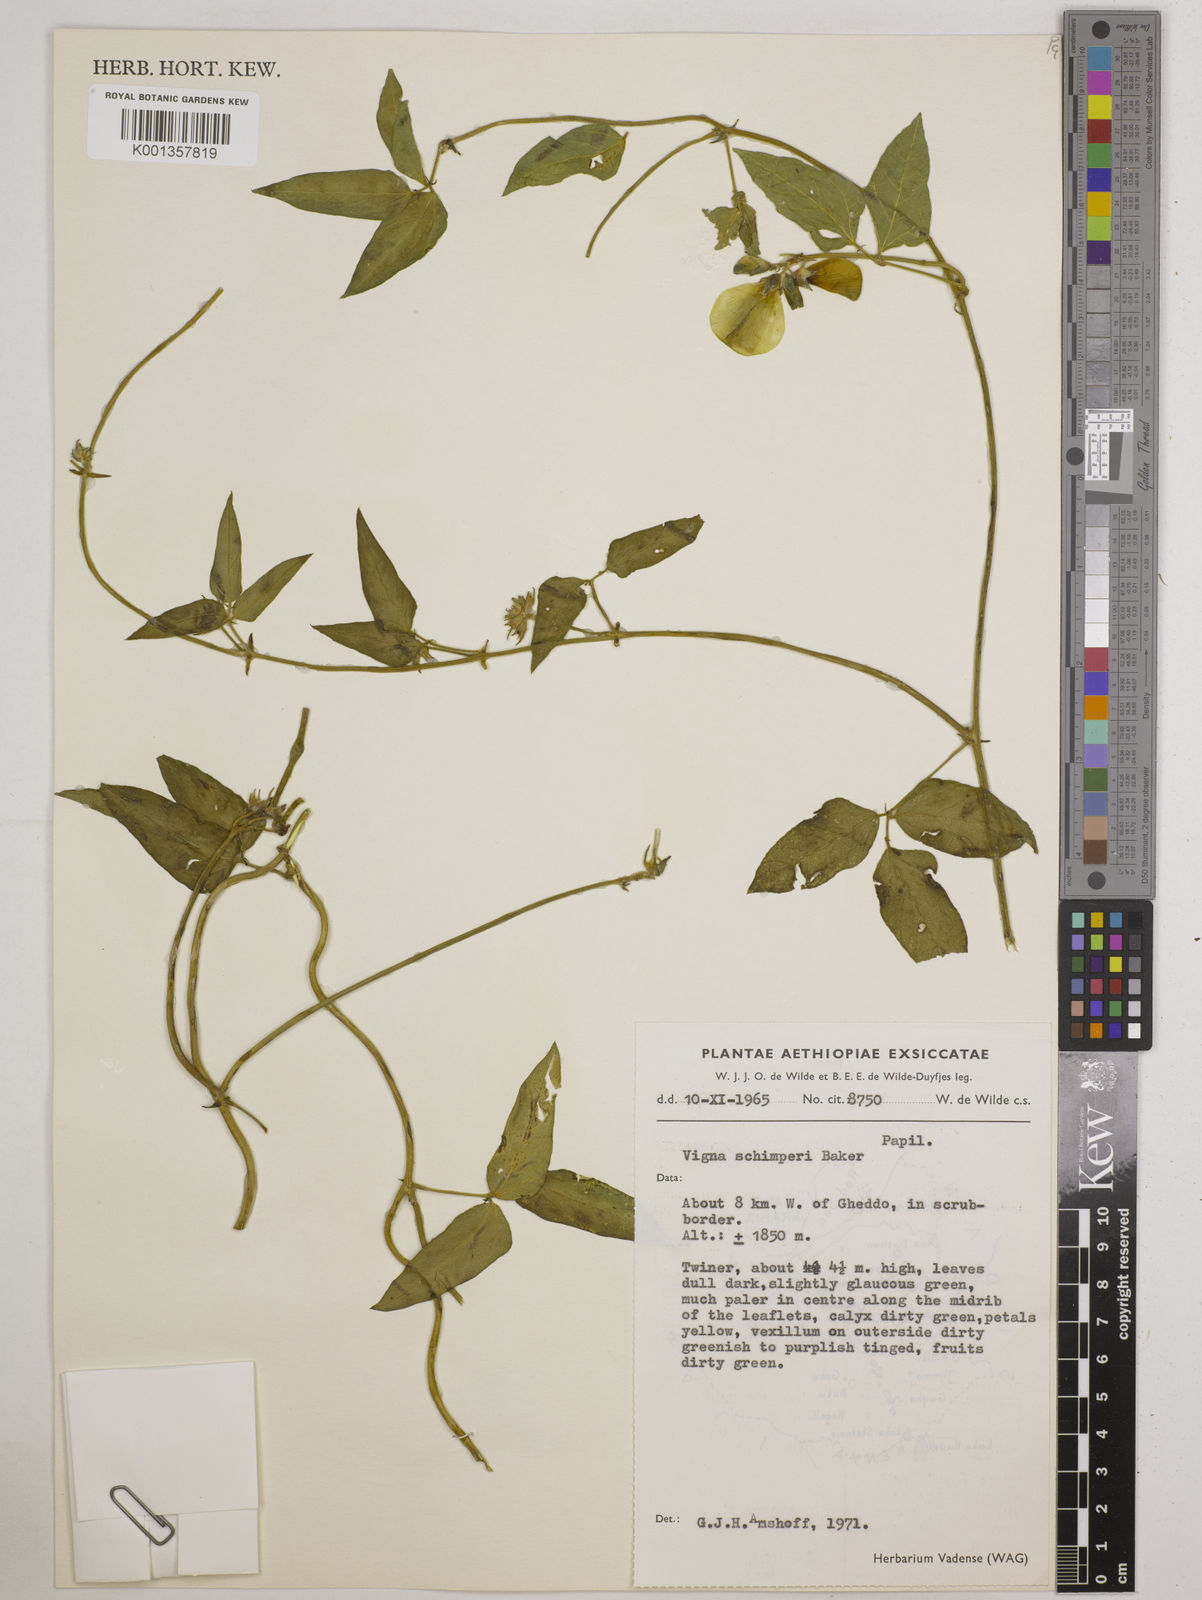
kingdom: Plantae
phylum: Tracheophyta
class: Magnoliopsida
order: Fabales
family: Fabaceae
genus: Vigna
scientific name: Vigna schimperi
